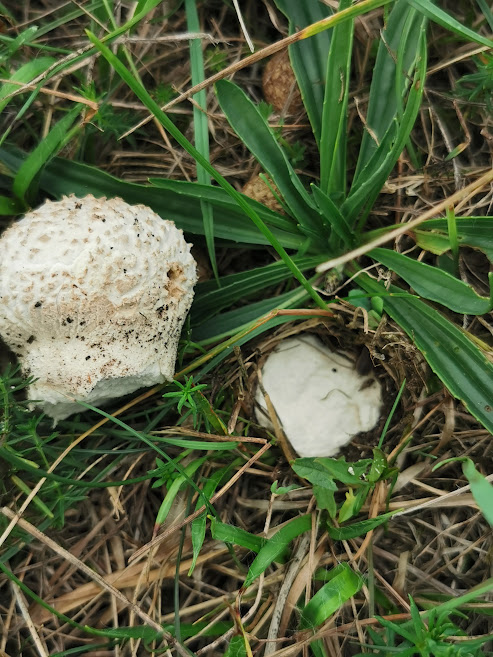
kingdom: Fungi
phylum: Basidiomycota
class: Agaricomycetes
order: Agaricales
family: Lycoperdaceae
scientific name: Lycoperdaceae
